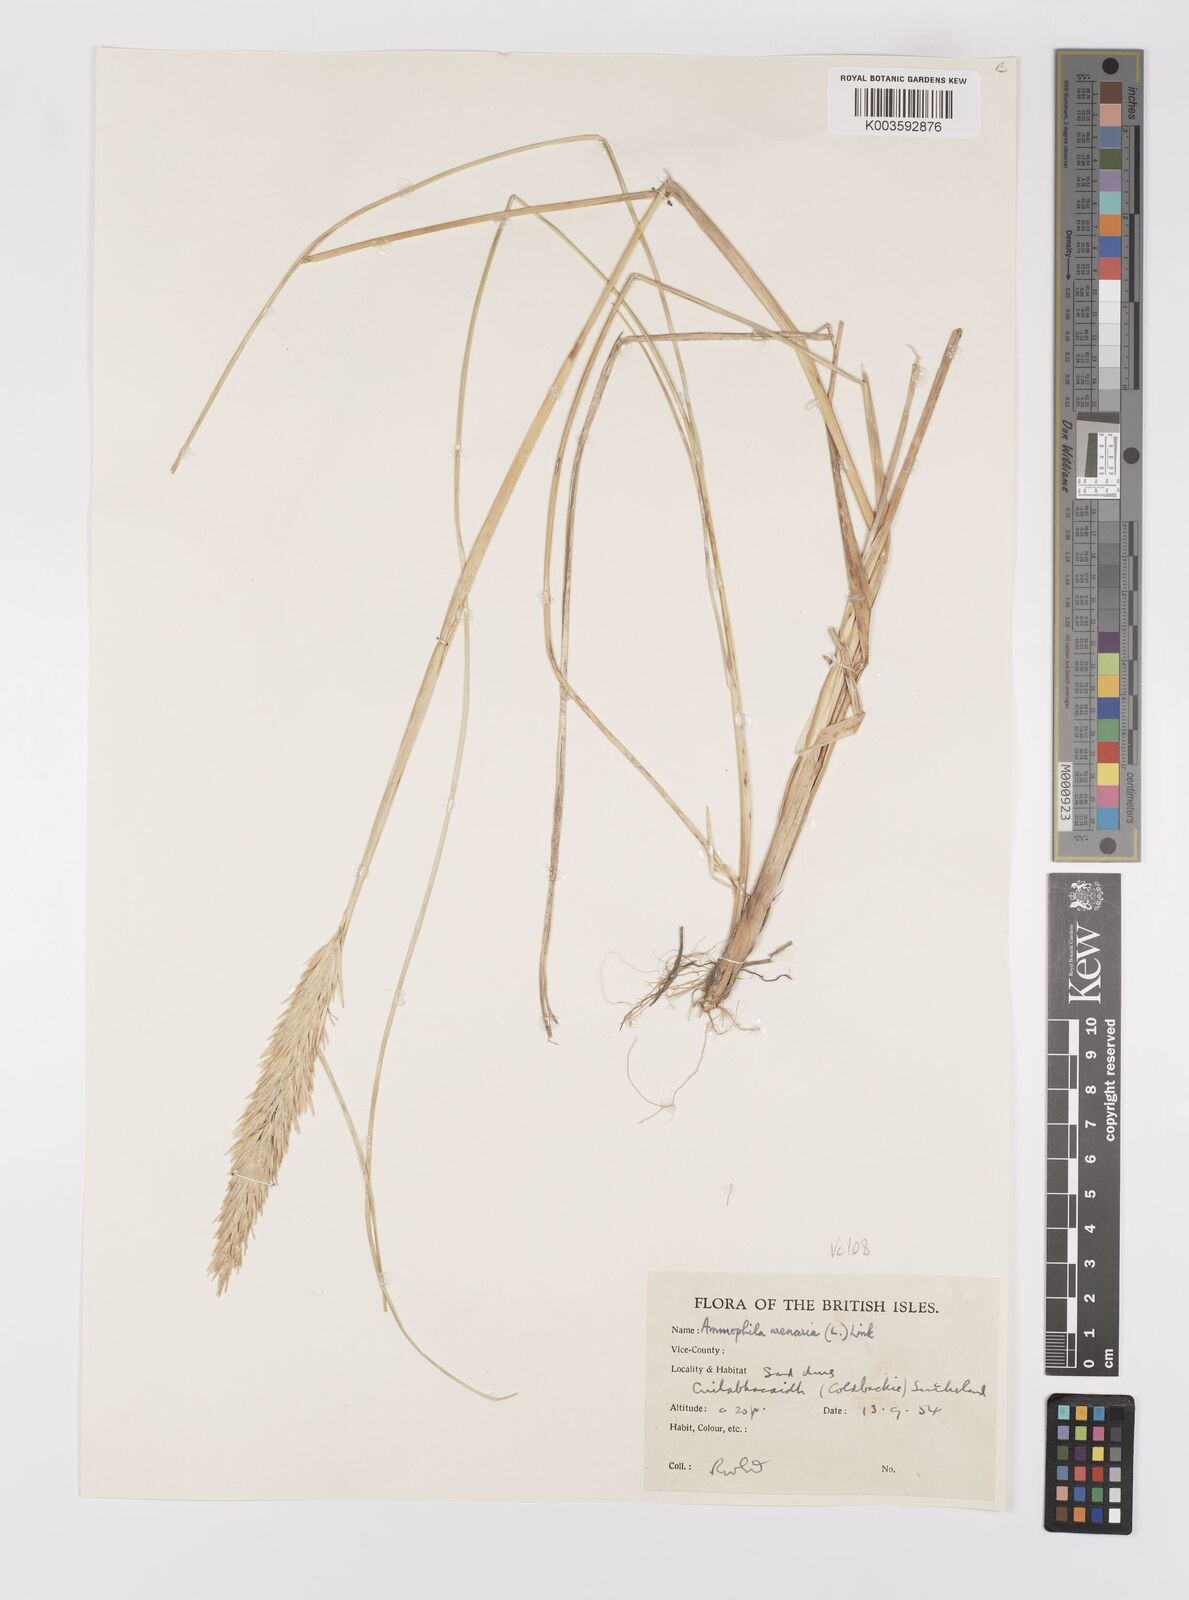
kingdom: Plantae
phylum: Tracheophyta
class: Liliopsida
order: Poales
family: Poaceae
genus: Calamagrostis
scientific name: Calamagrostis arenaria
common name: European beachgrass
